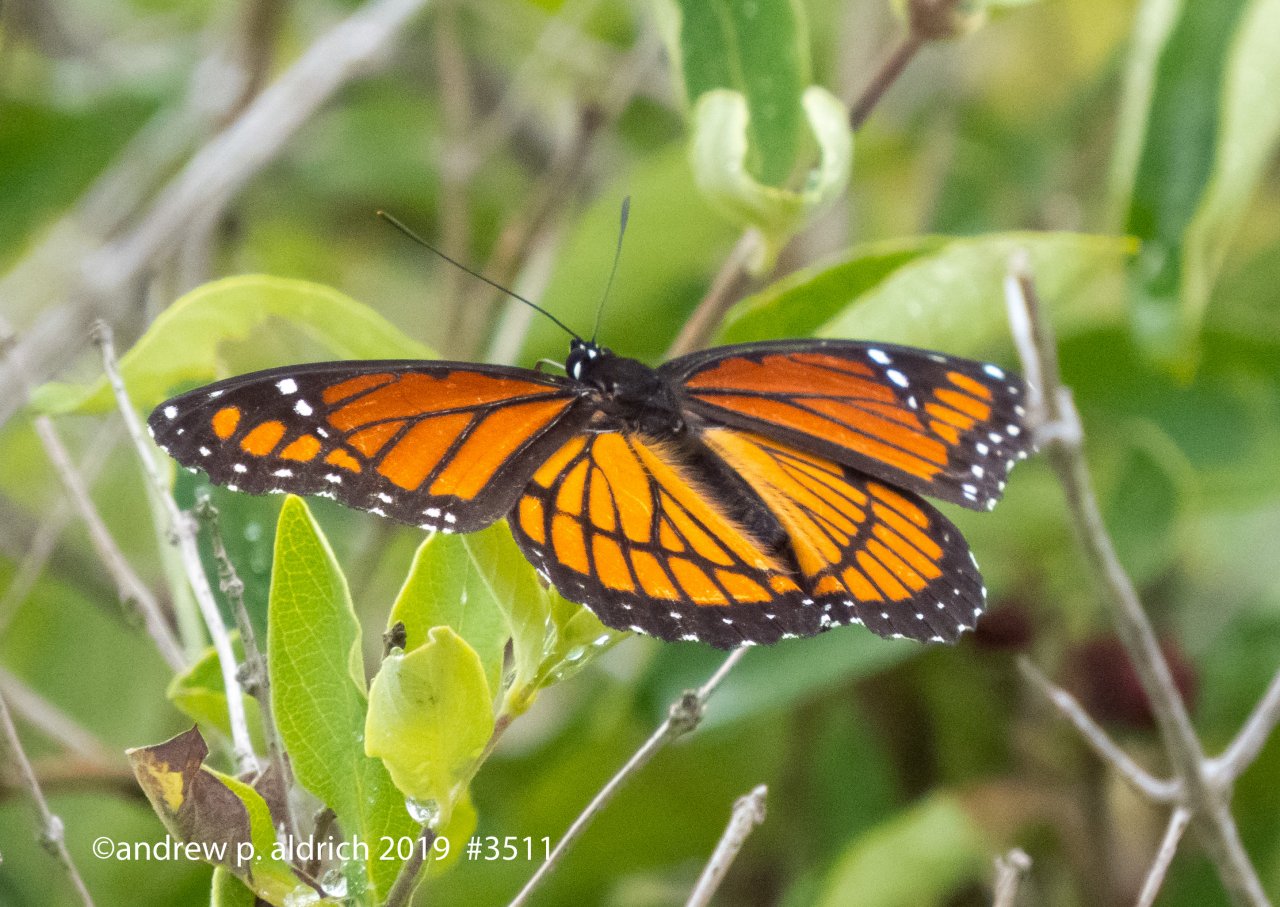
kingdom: Animalia
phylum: Arthropoda
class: Insecta
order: Lepidoptera
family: Nymphalidae
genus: Limenitis
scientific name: Limenitis archippus
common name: Viceroy
